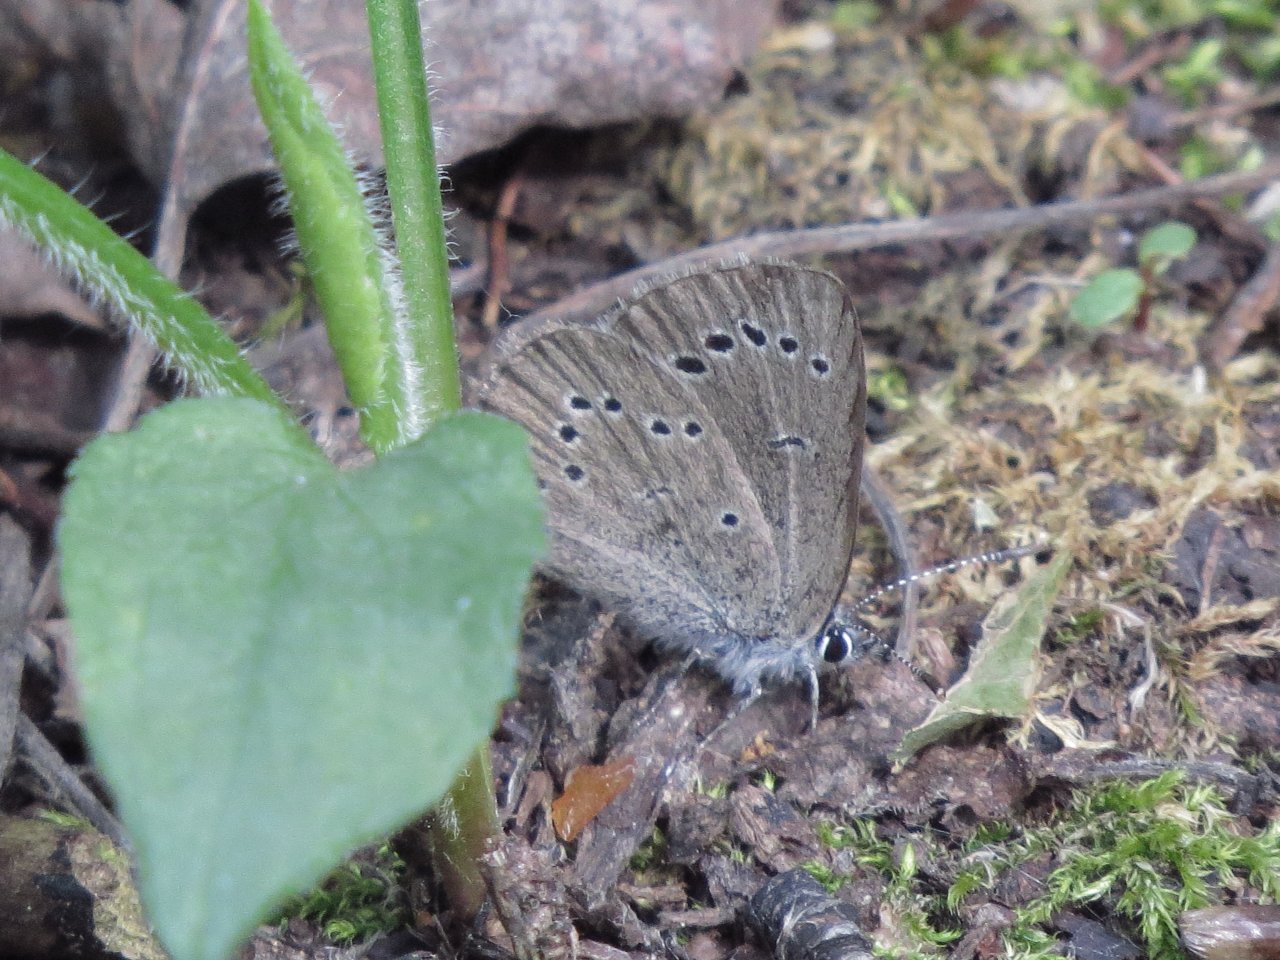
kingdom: Animalia
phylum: Arthropoda
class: Insecta
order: Lepidoptera
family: Lycaenidae
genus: Glaucopsyche
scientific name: Glaucopsyche lygdamus
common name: Silvery Blue
